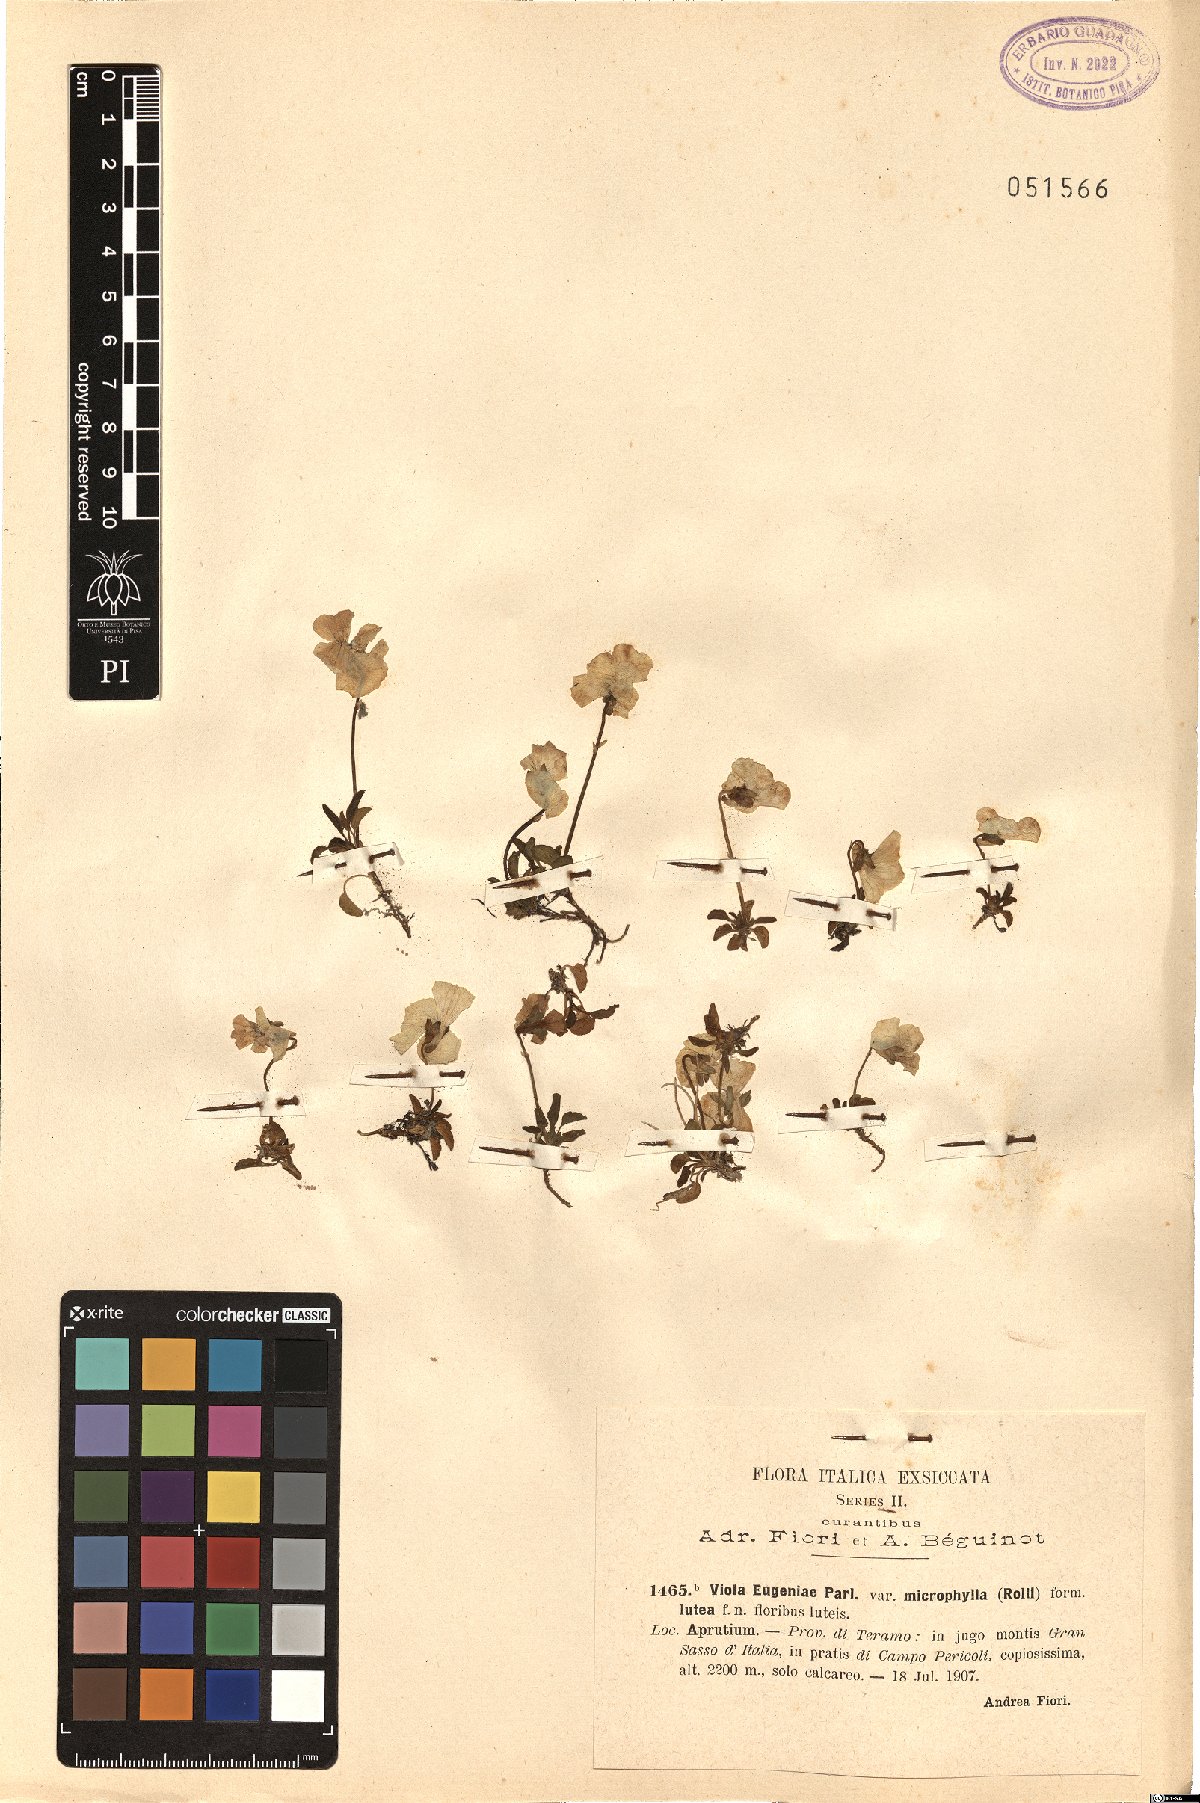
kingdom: Plantae
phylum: Tracheophyta
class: Magnoliopsida
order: Malpighiales
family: Violaceae
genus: Viola
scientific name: Viola eugeniae
